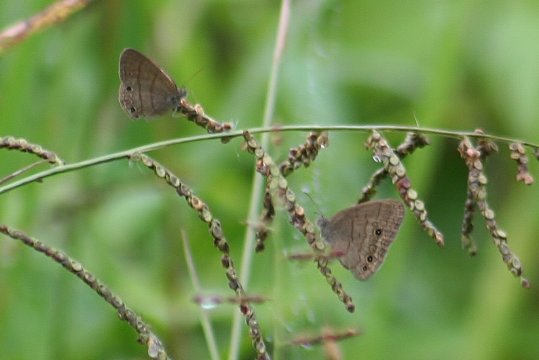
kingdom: Animalia
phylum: Arthropoda
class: Insecta
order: Lepidoptera
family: Nymphalidae
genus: Hermeuptychia
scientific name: Hermeuptychia hermes
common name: Carolina Satyr
